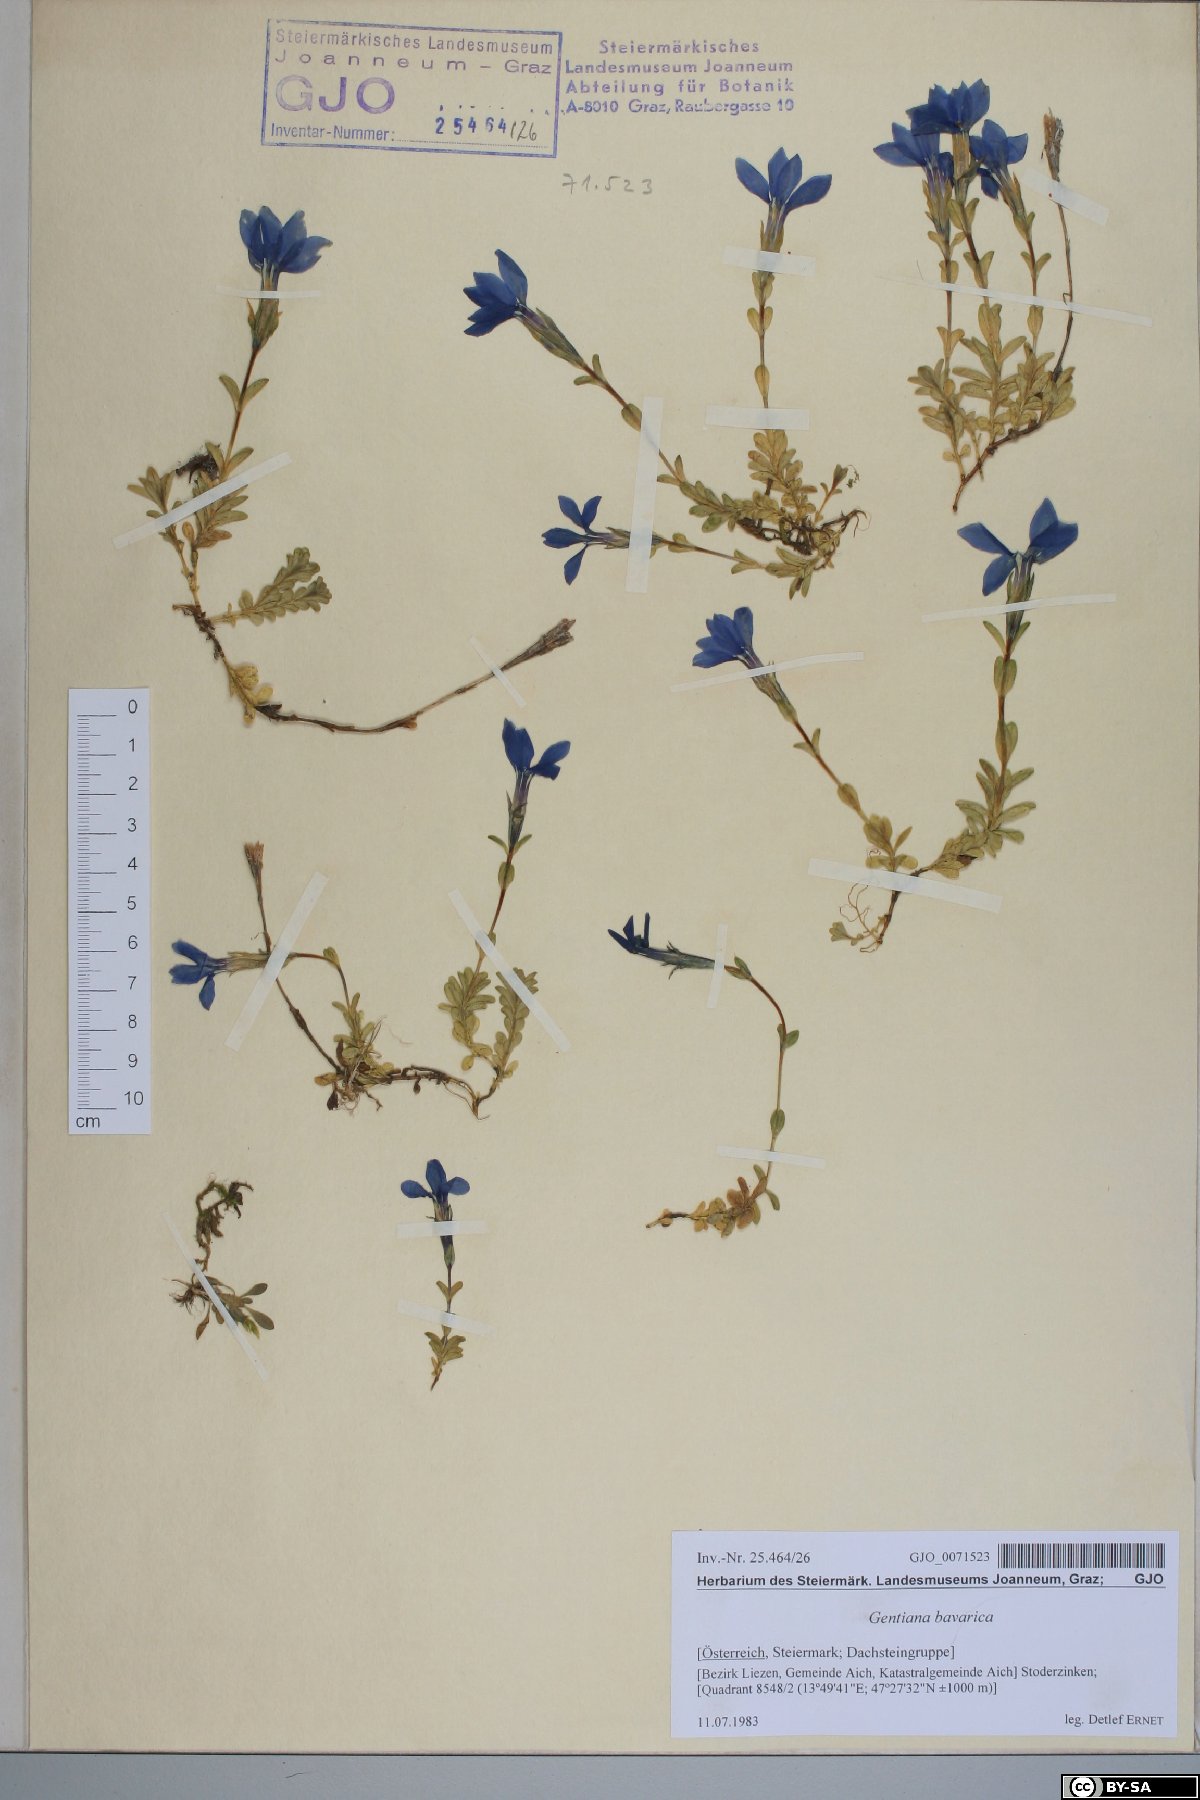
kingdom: Plantae
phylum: Tracheophyta
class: Magnoliopsida
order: Gentianales
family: Gentianaceae
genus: Gentiana
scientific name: Gentiana bavarica
